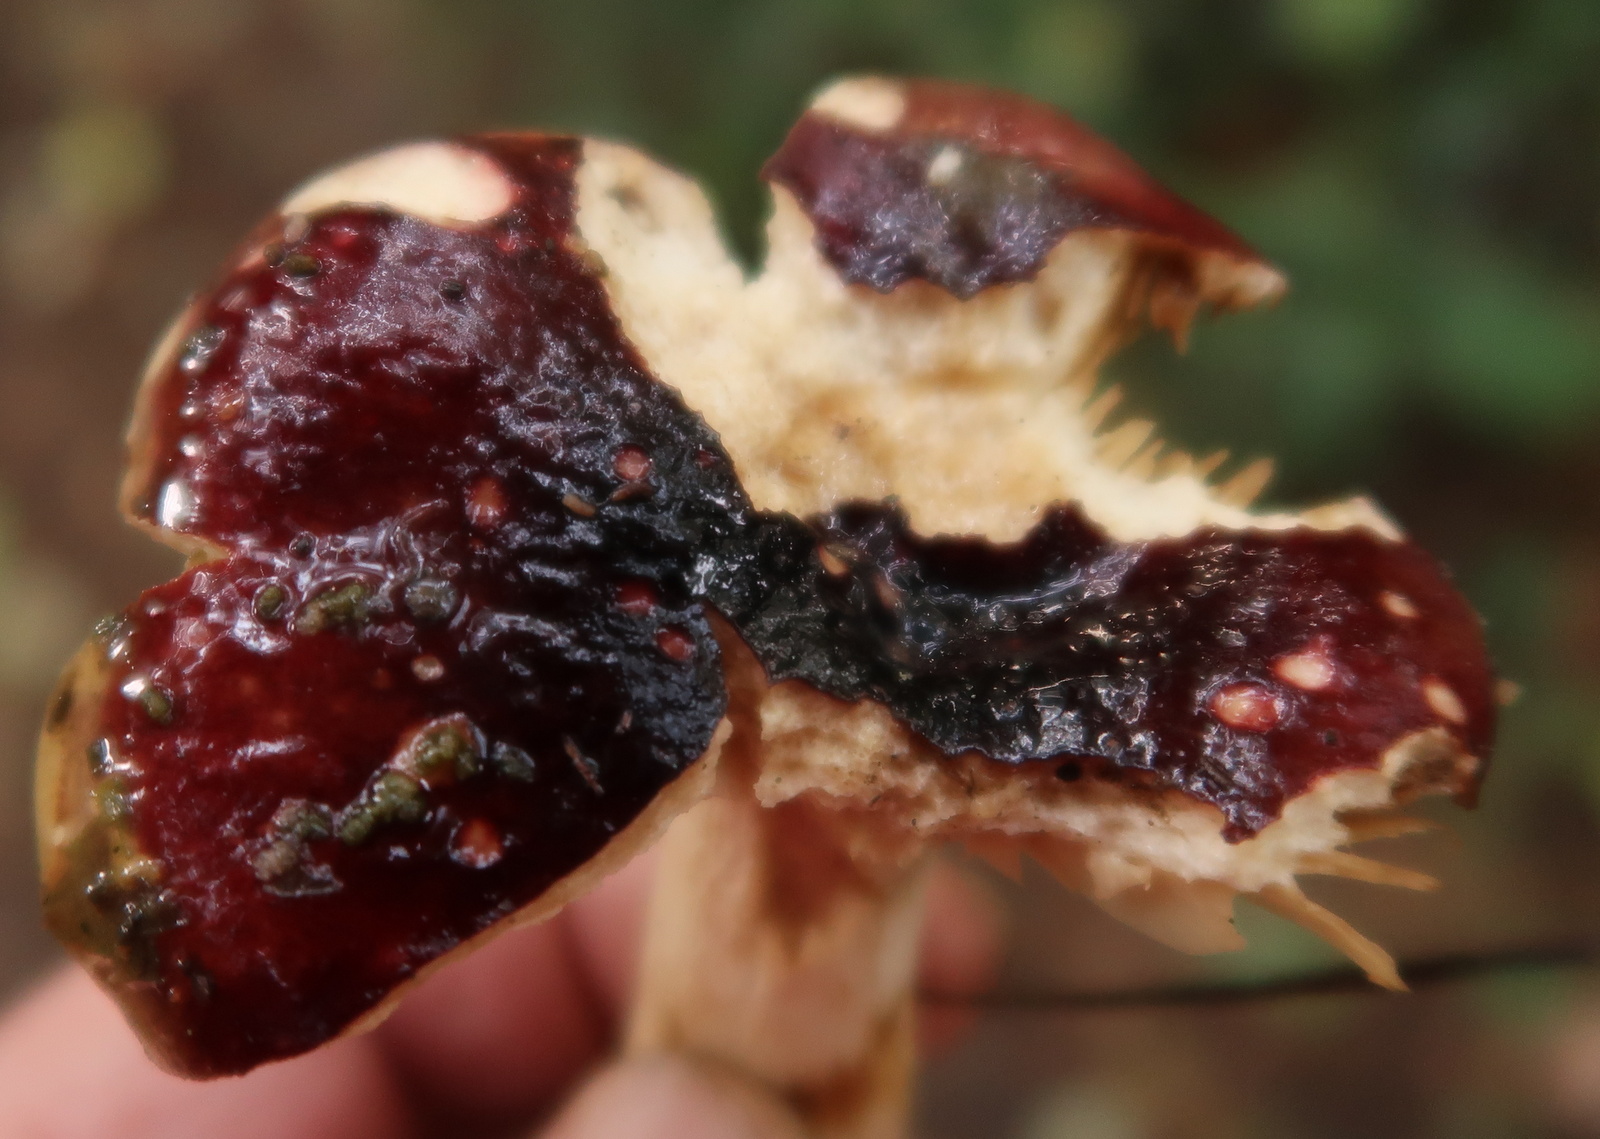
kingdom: Fungi
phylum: Basidiomycota
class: Agaricomycetes
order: Russulales
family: Russulaceae
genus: Russula
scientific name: Russula
